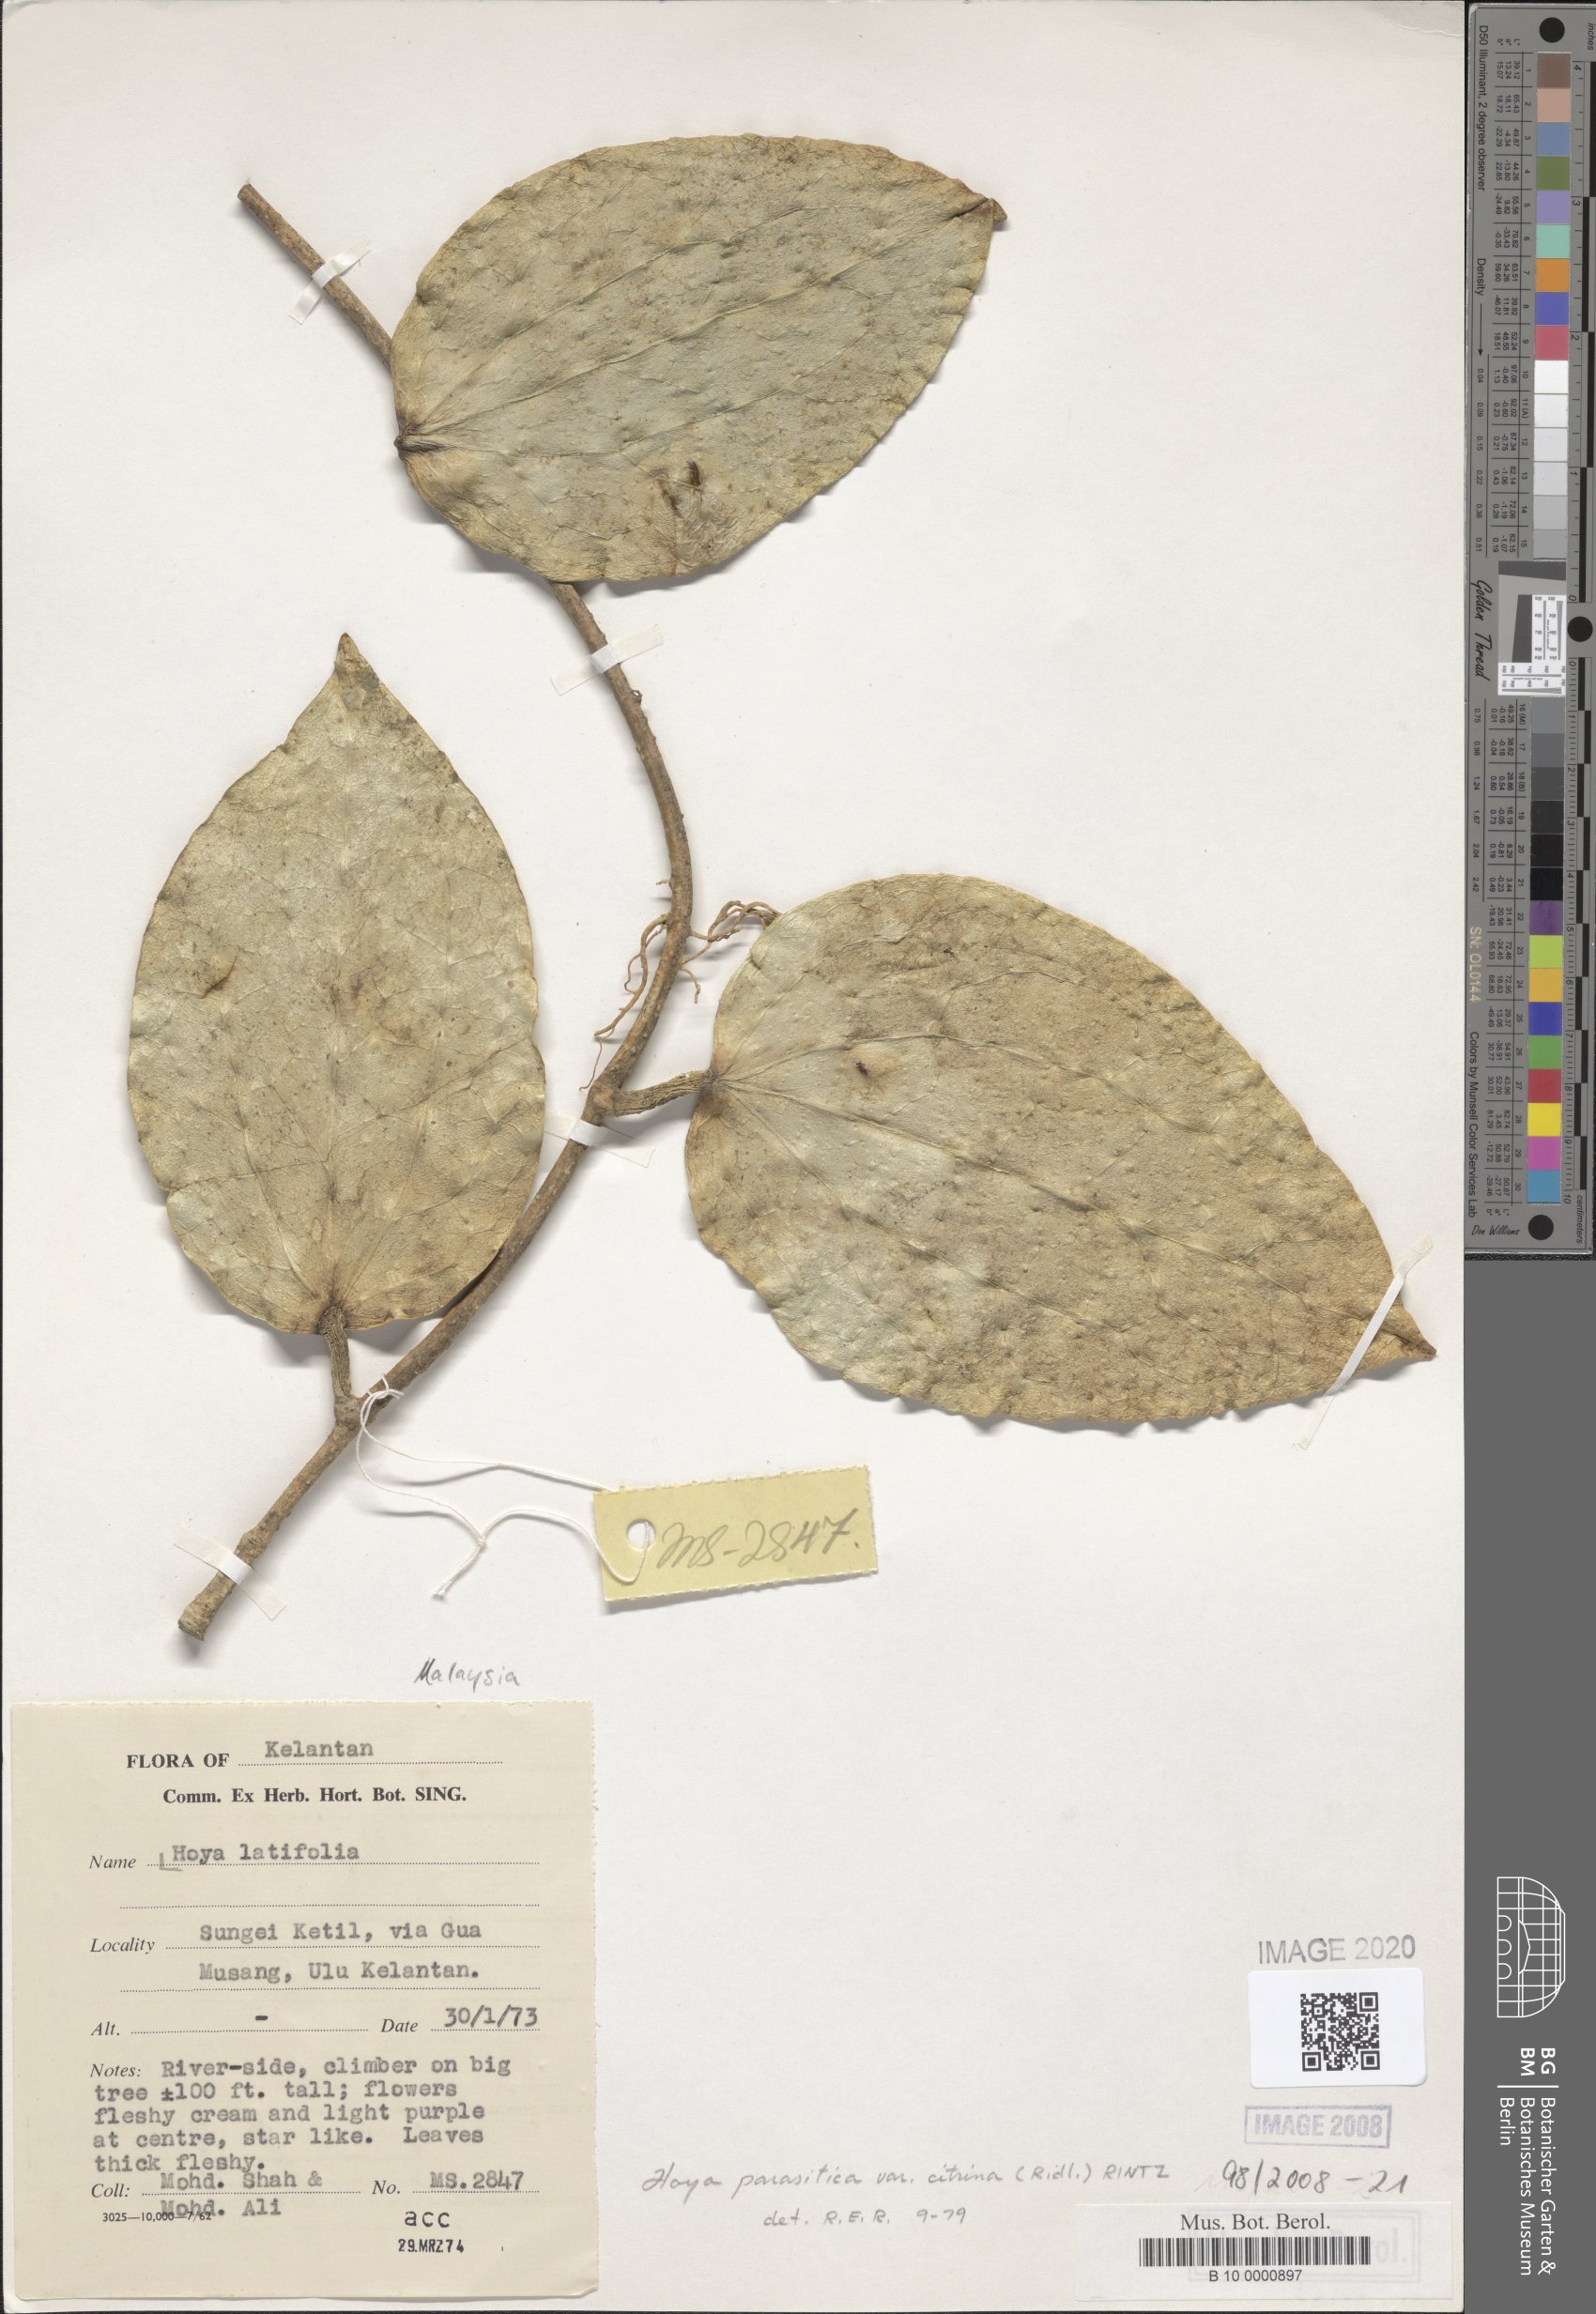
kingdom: Plantae
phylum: Tracheophyta
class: Magnoliopsida
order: Gentianales
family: Apocynaceae
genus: Hoya
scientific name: Hoya latifolia
